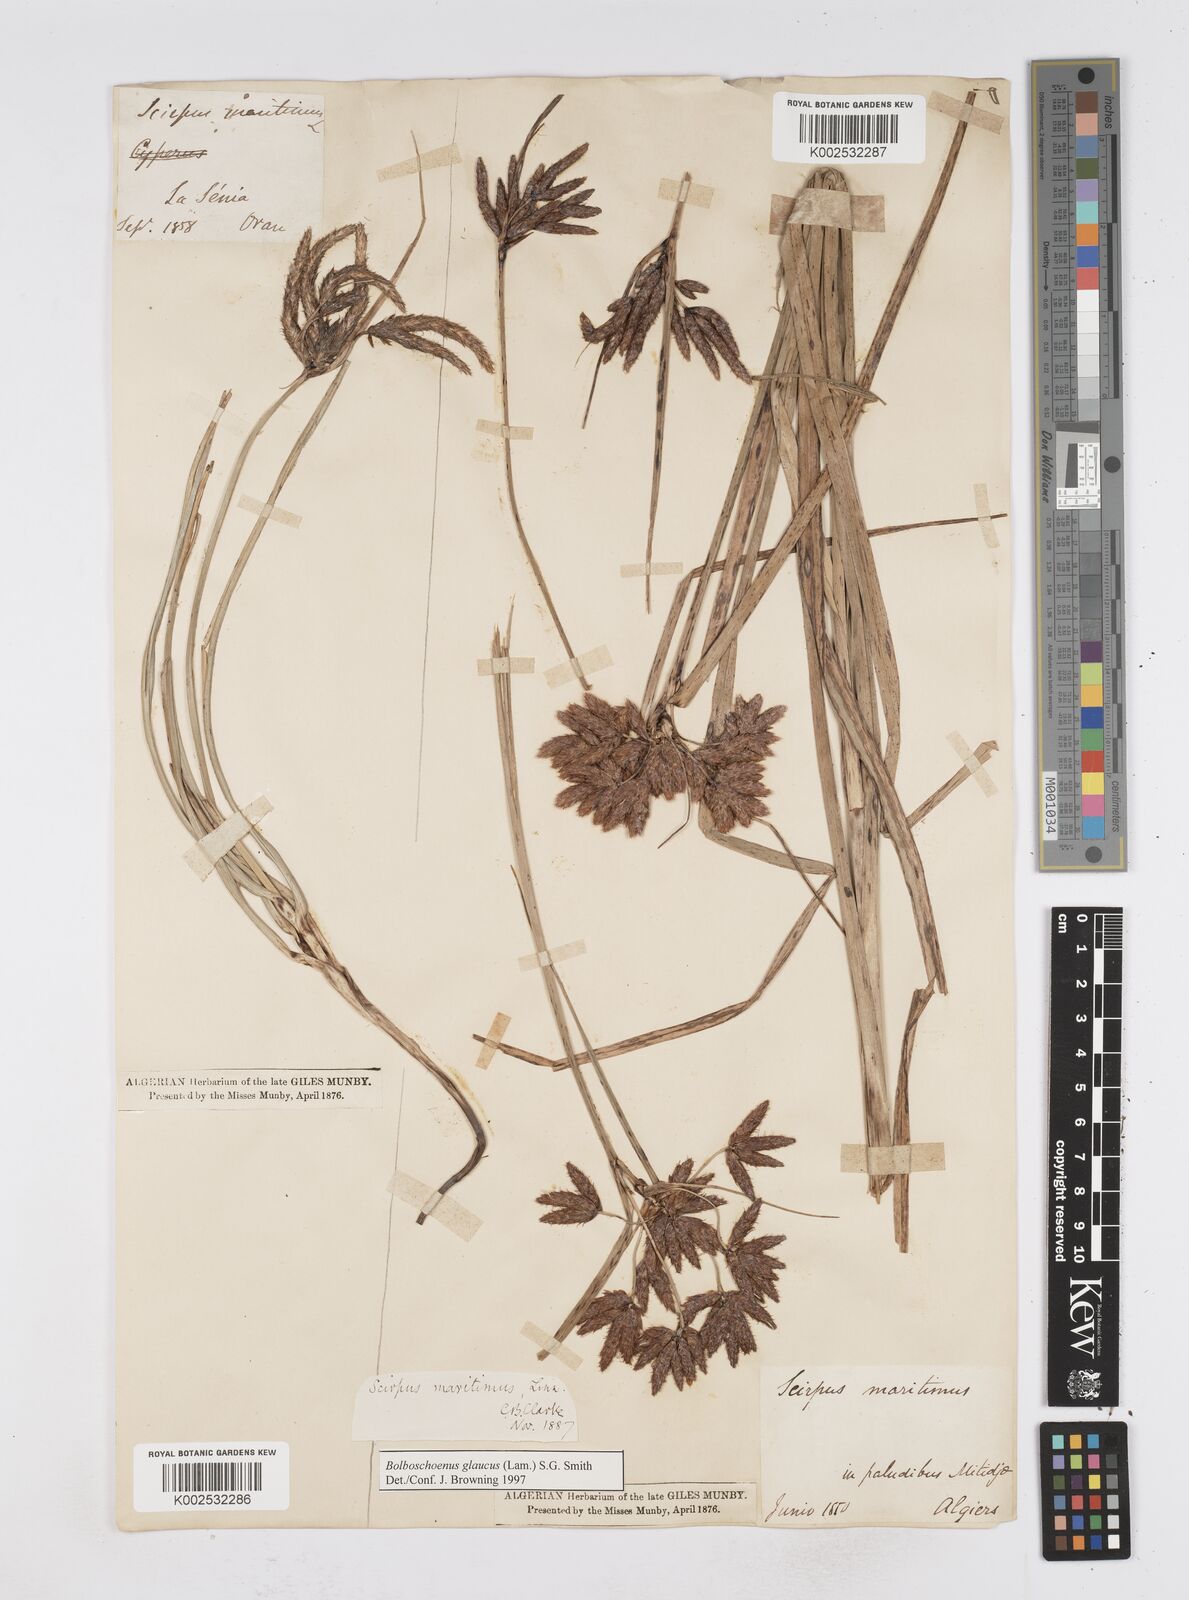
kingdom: Plantae
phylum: Tracheophyta
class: Liliopsida
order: Poales
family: Cyperaceae
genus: Bolboschoenus
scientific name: Bolboschoenus maritimus
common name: Sea club-rush
